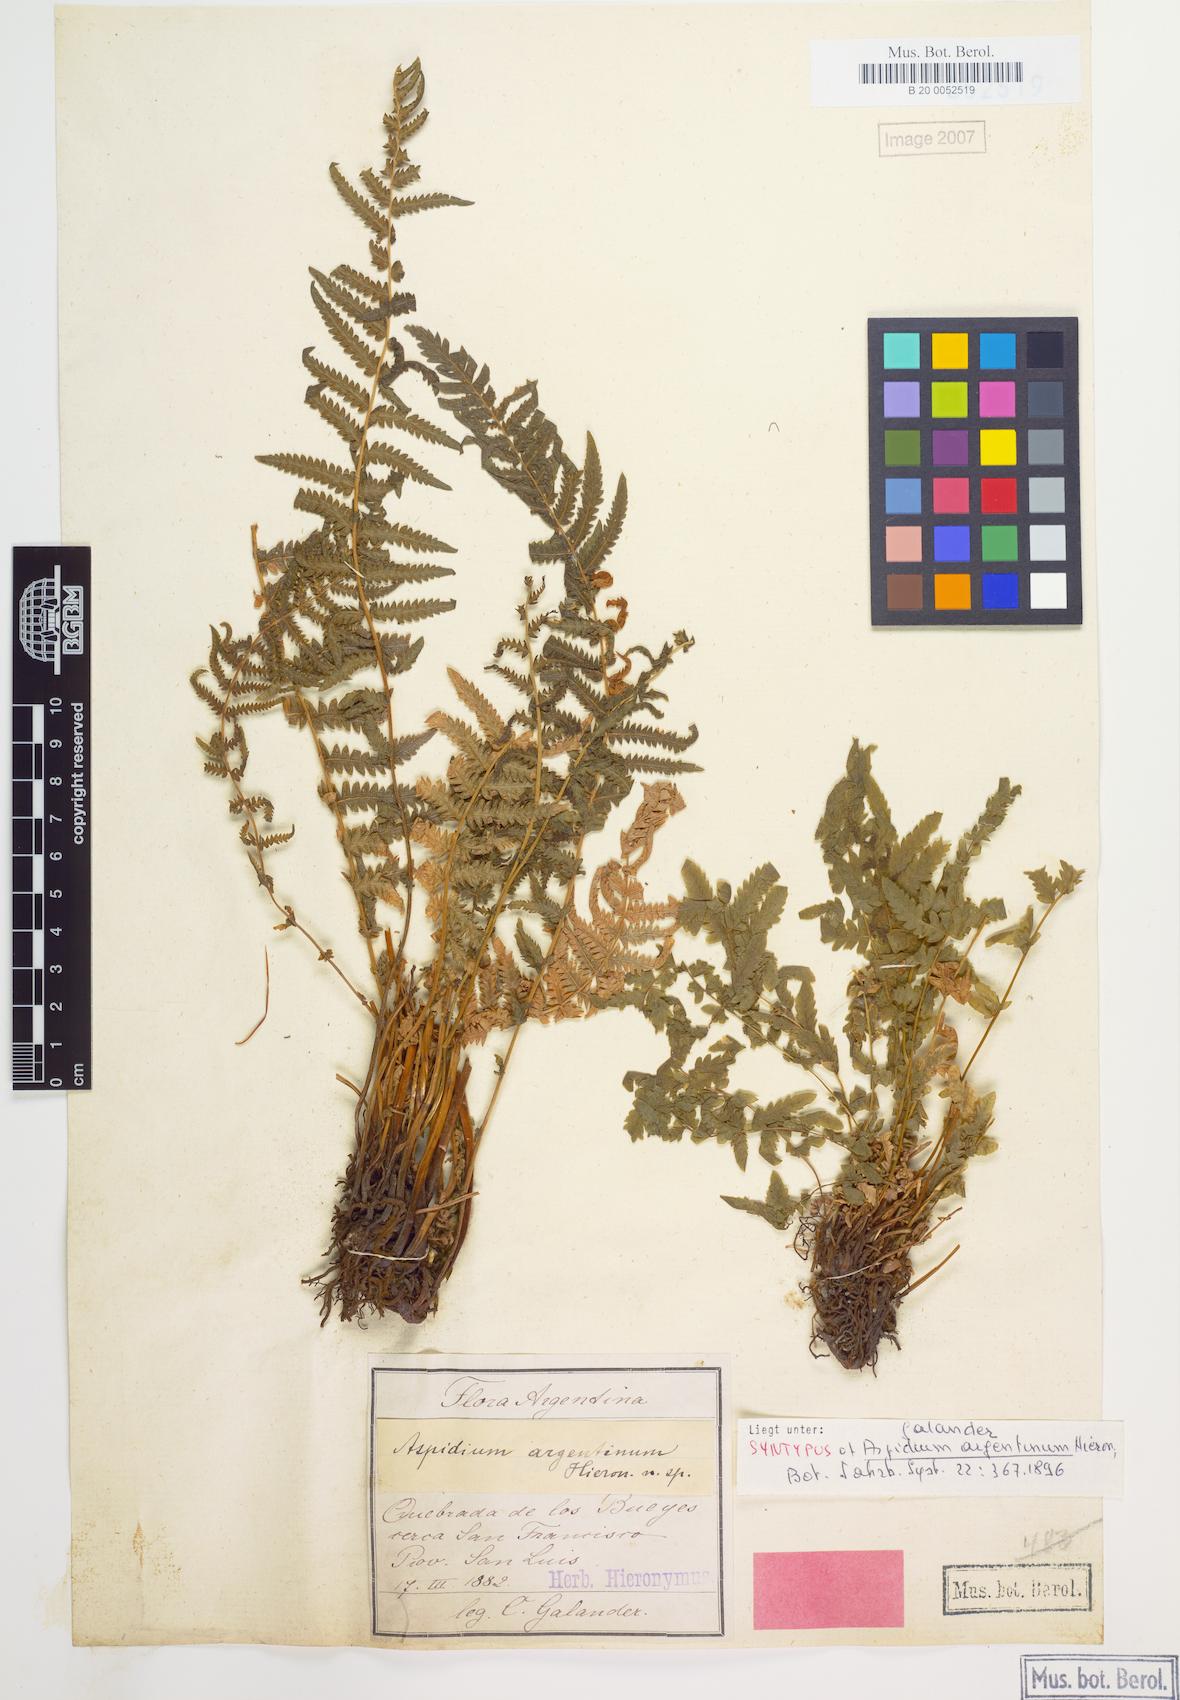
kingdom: Plantae
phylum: Tracheophyta
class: Polypodiopsida
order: Polypodiales
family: Thelypteridaceae
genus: Amauropelta
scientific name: Amauropelta argentina
